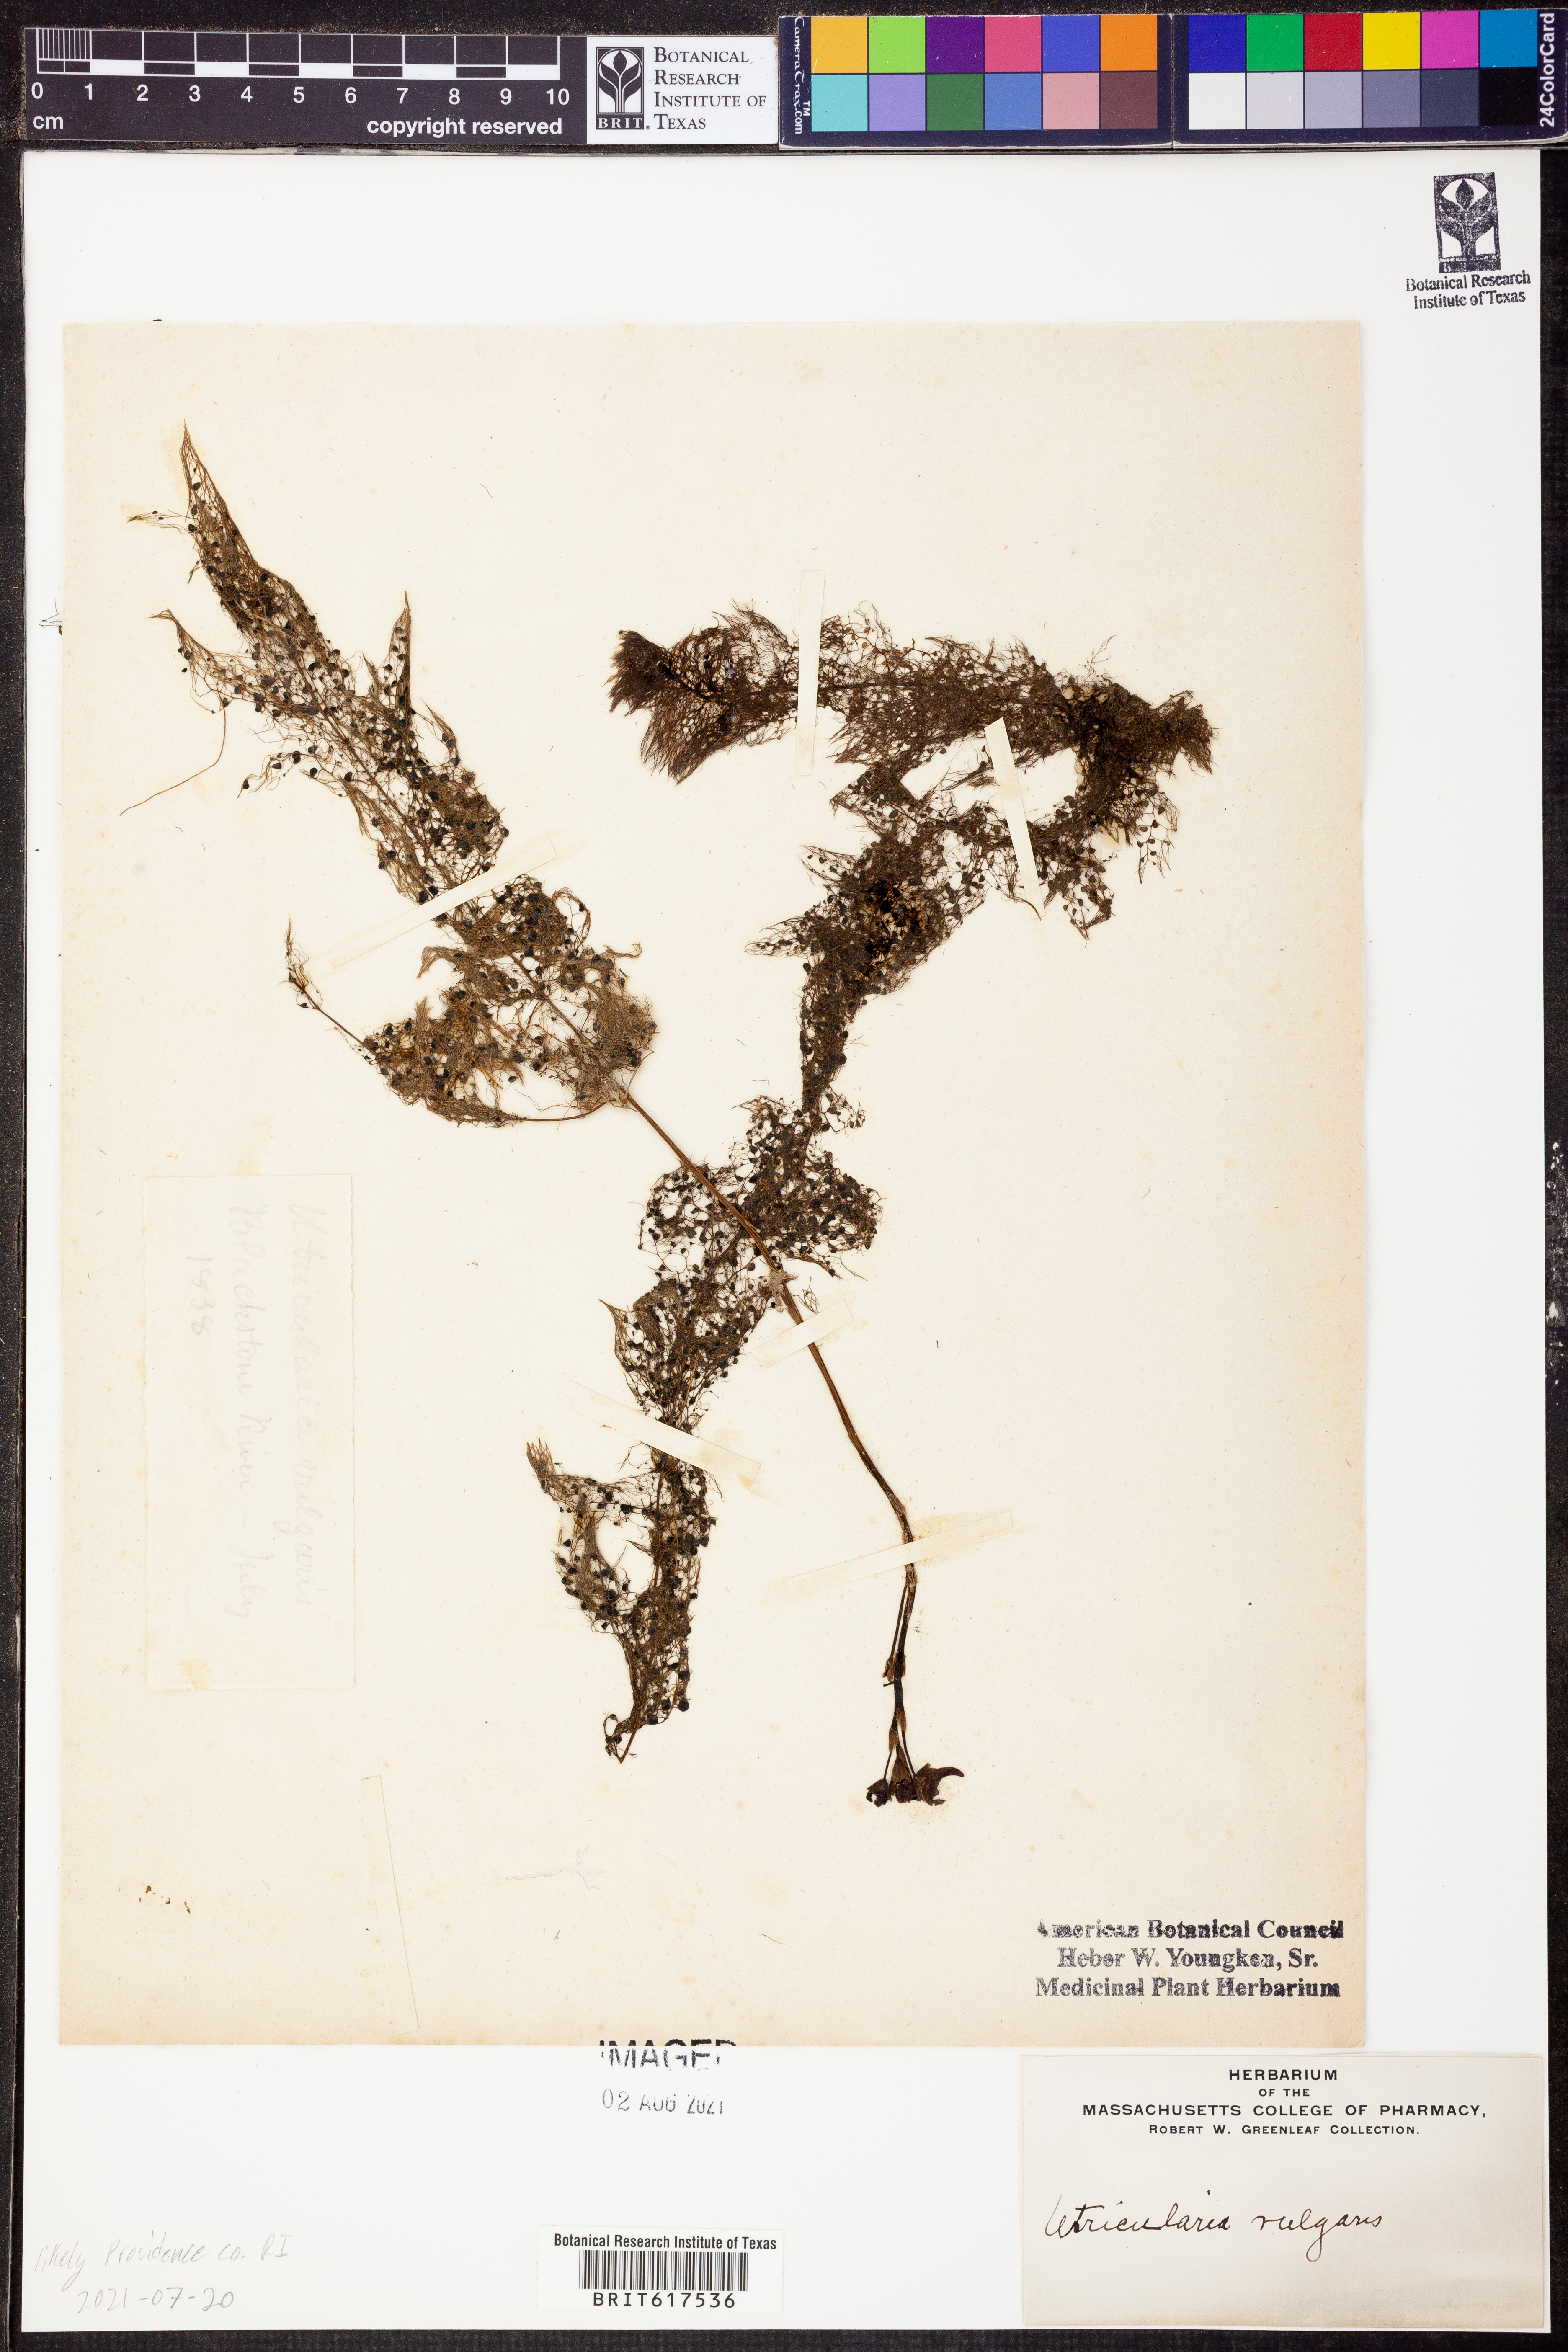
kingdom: Plantae
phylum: Tracheophyta
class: Magnoliopsida
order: Lamiales
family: Lentibulariaceae
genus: Utricularia
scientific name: Utricularia vulgaris
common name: Greater bladderwort
